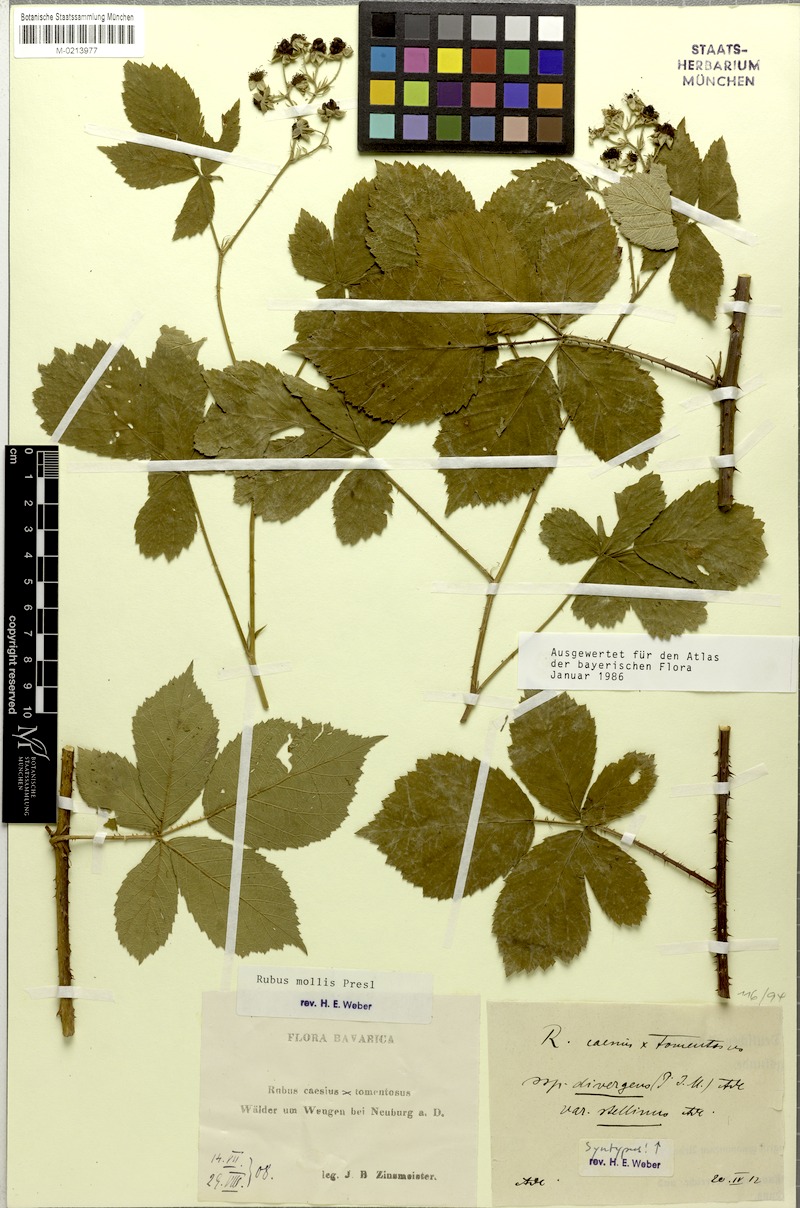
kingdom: Plantae
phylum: Tracheophyta
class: Magnoliopsida
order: Rosales
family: Rosaceae
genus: Rubus
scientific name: Rubus mollis
